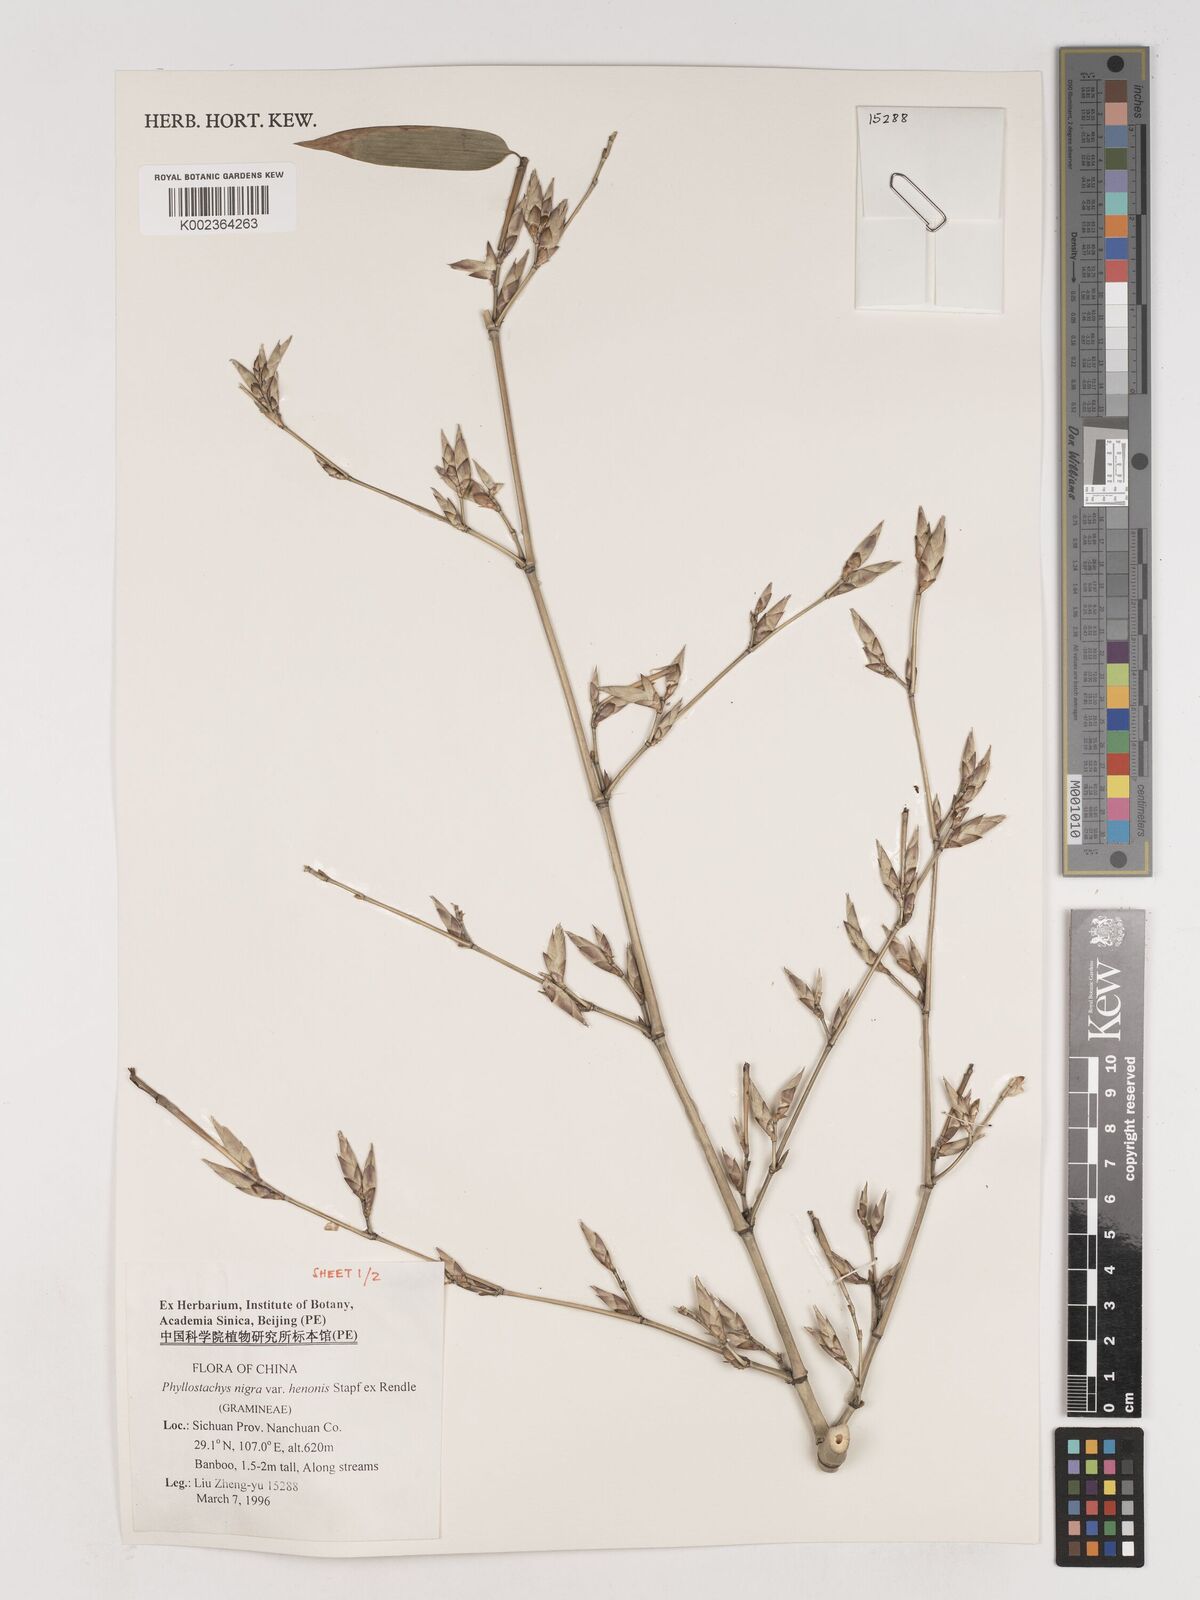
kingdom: Plantae
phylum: Tracheophyta
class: Liliopsida
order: Poales
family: Poaceae
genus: Phyllostachys
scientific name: Phyllostachys nigra
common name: Black bamboo
